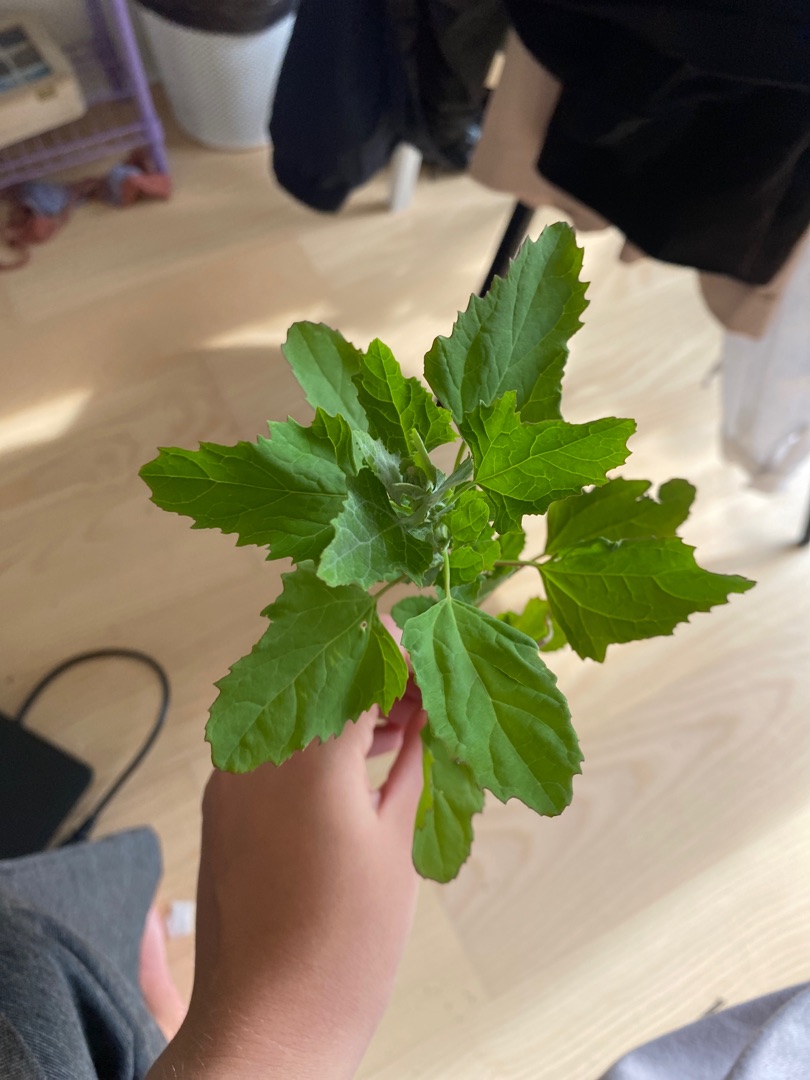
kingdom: Plantae
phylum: Tracheophyta
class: Magnoliopsida
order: Caryophyllales
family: Amaranthaceae
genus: Chenopodium
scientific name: Chenopodium album
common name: Hvidmelet gåsefod
